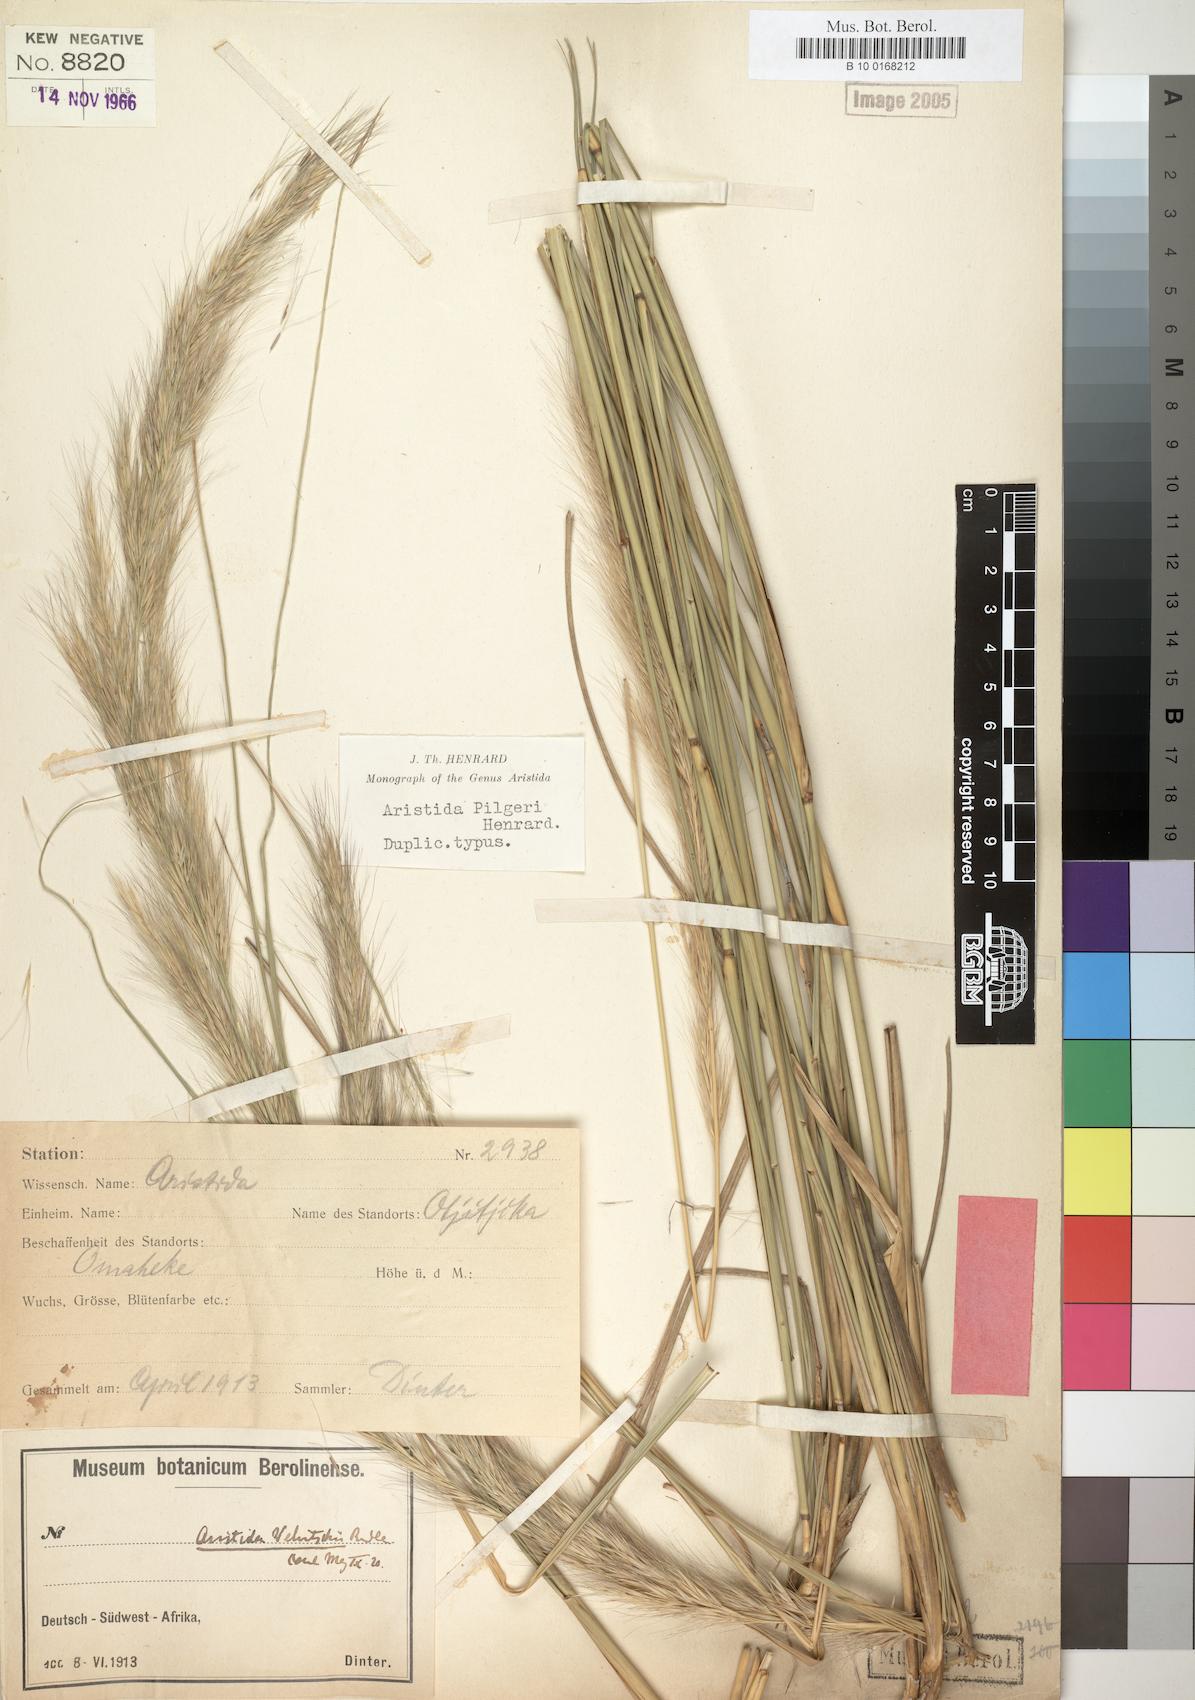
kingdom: Plantae
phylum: Tracheophyta
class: Liliopsida
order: Poales
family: Poaceae
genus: Aristida
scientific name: Aristida pilgeri
